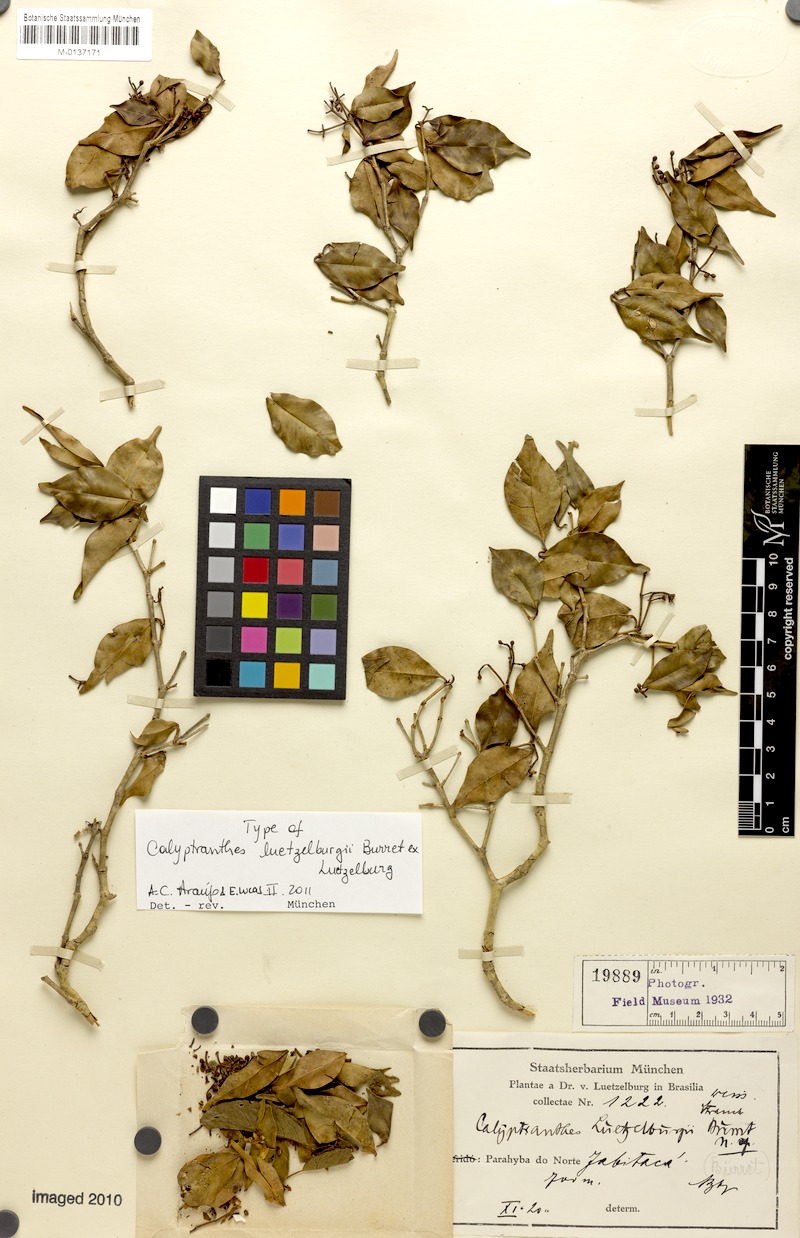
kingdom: Plantae
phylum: Tracheophyta
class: Magnoliopsida
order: Myrtales
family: Myrtaceae
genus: Calyptranthes
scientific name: Calyptranthes luetzelburgii
